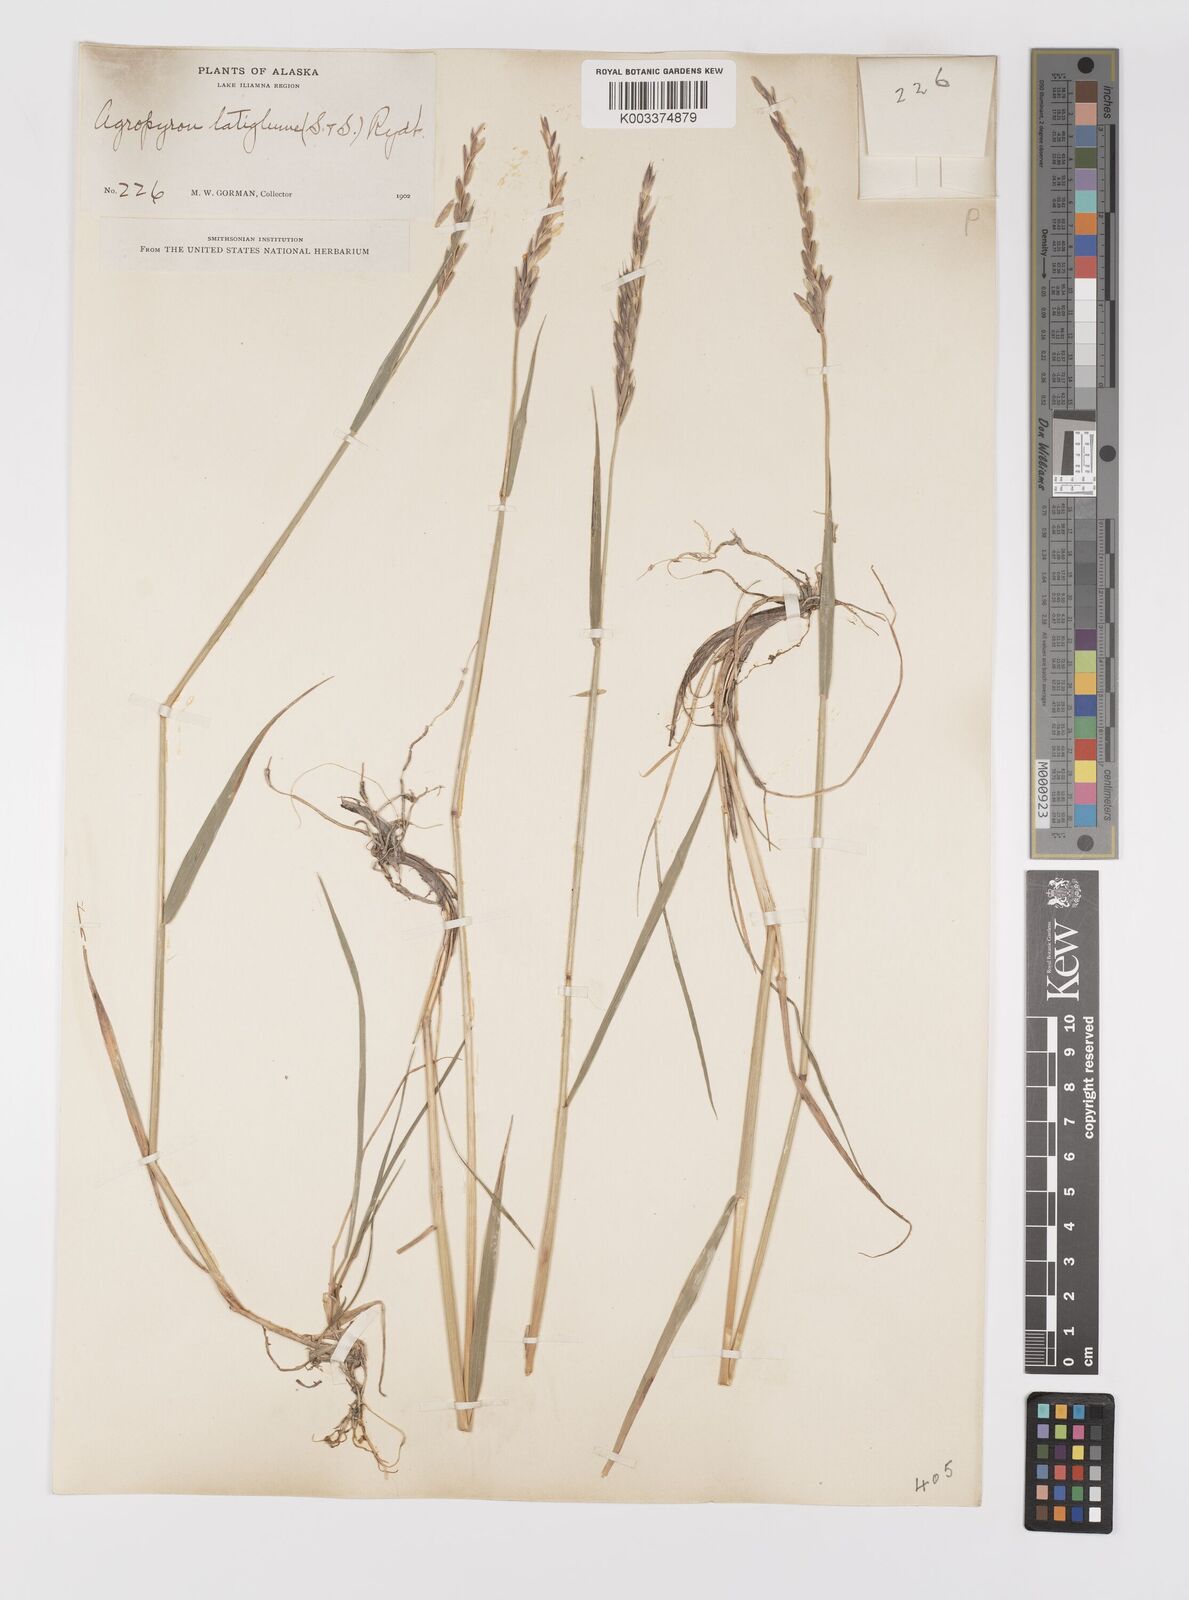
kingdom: Plantae
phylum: Tracheophyta
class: Liliopsida
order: Poales
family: Poaceae
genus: Elymus
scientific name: Elymus violaceus
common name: Arctic wheatgrass
